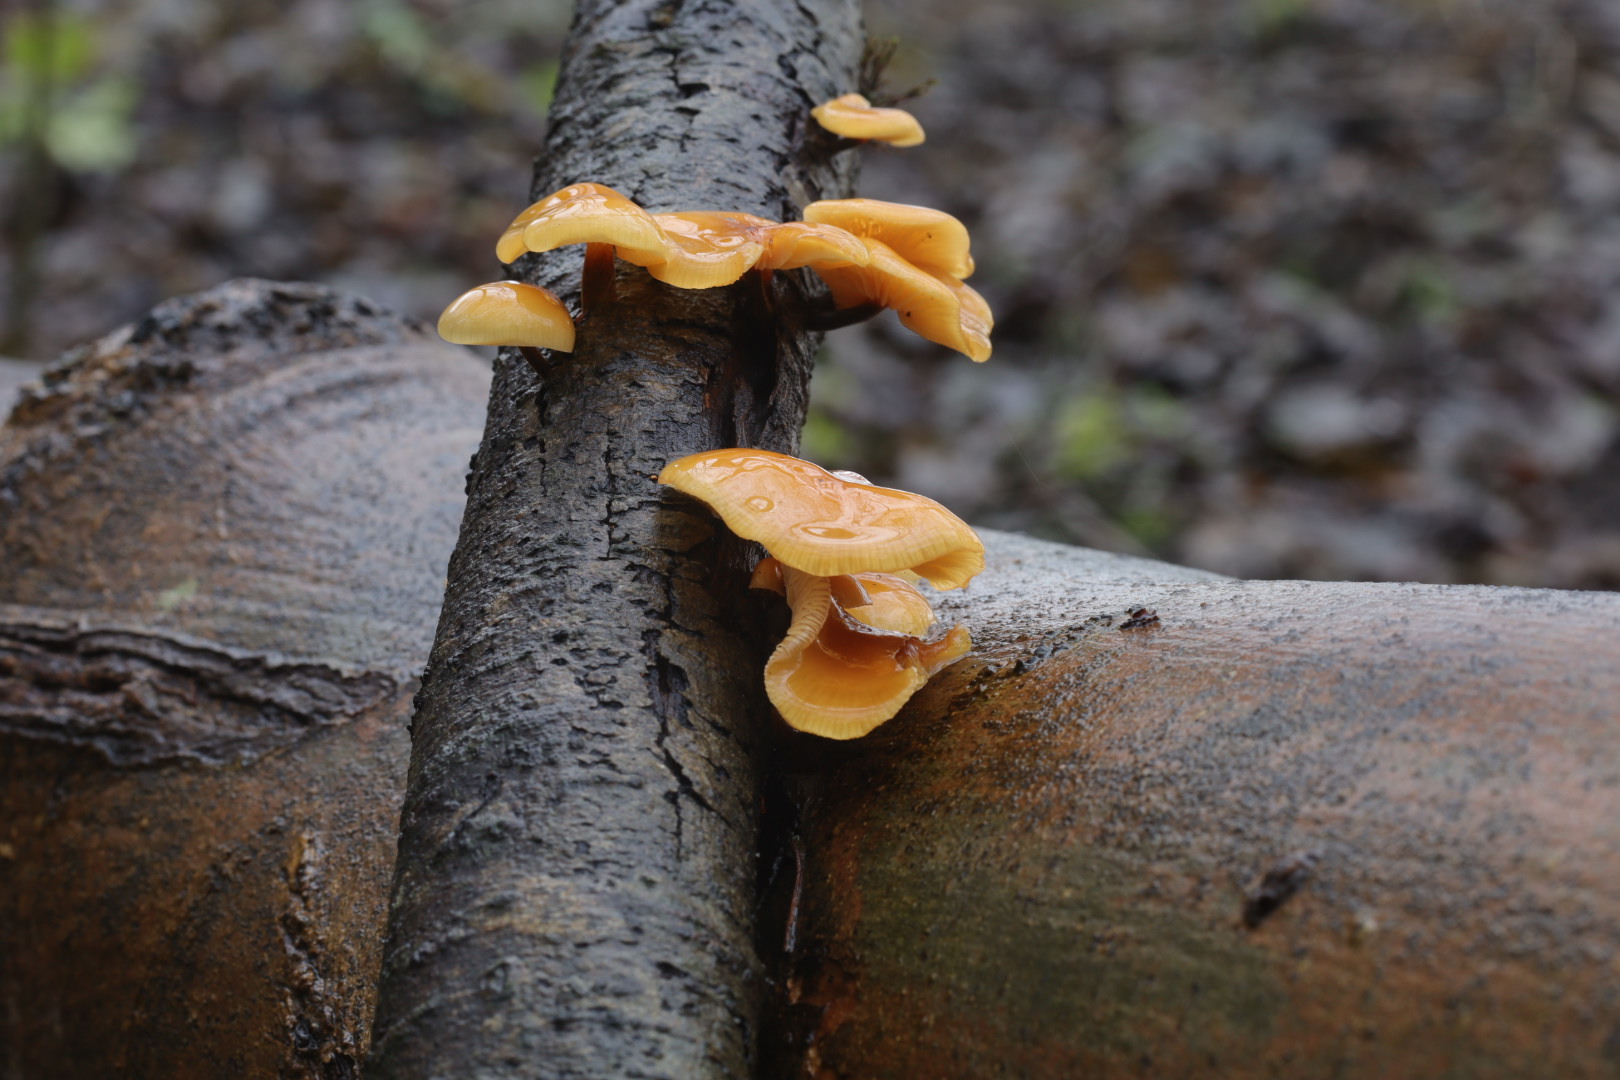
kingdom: Fungi
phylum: Basidiomycota
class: Agaricomycetes
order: Agaricales
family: Physalacriaceae
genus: Flammulina
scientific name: Flammulina
